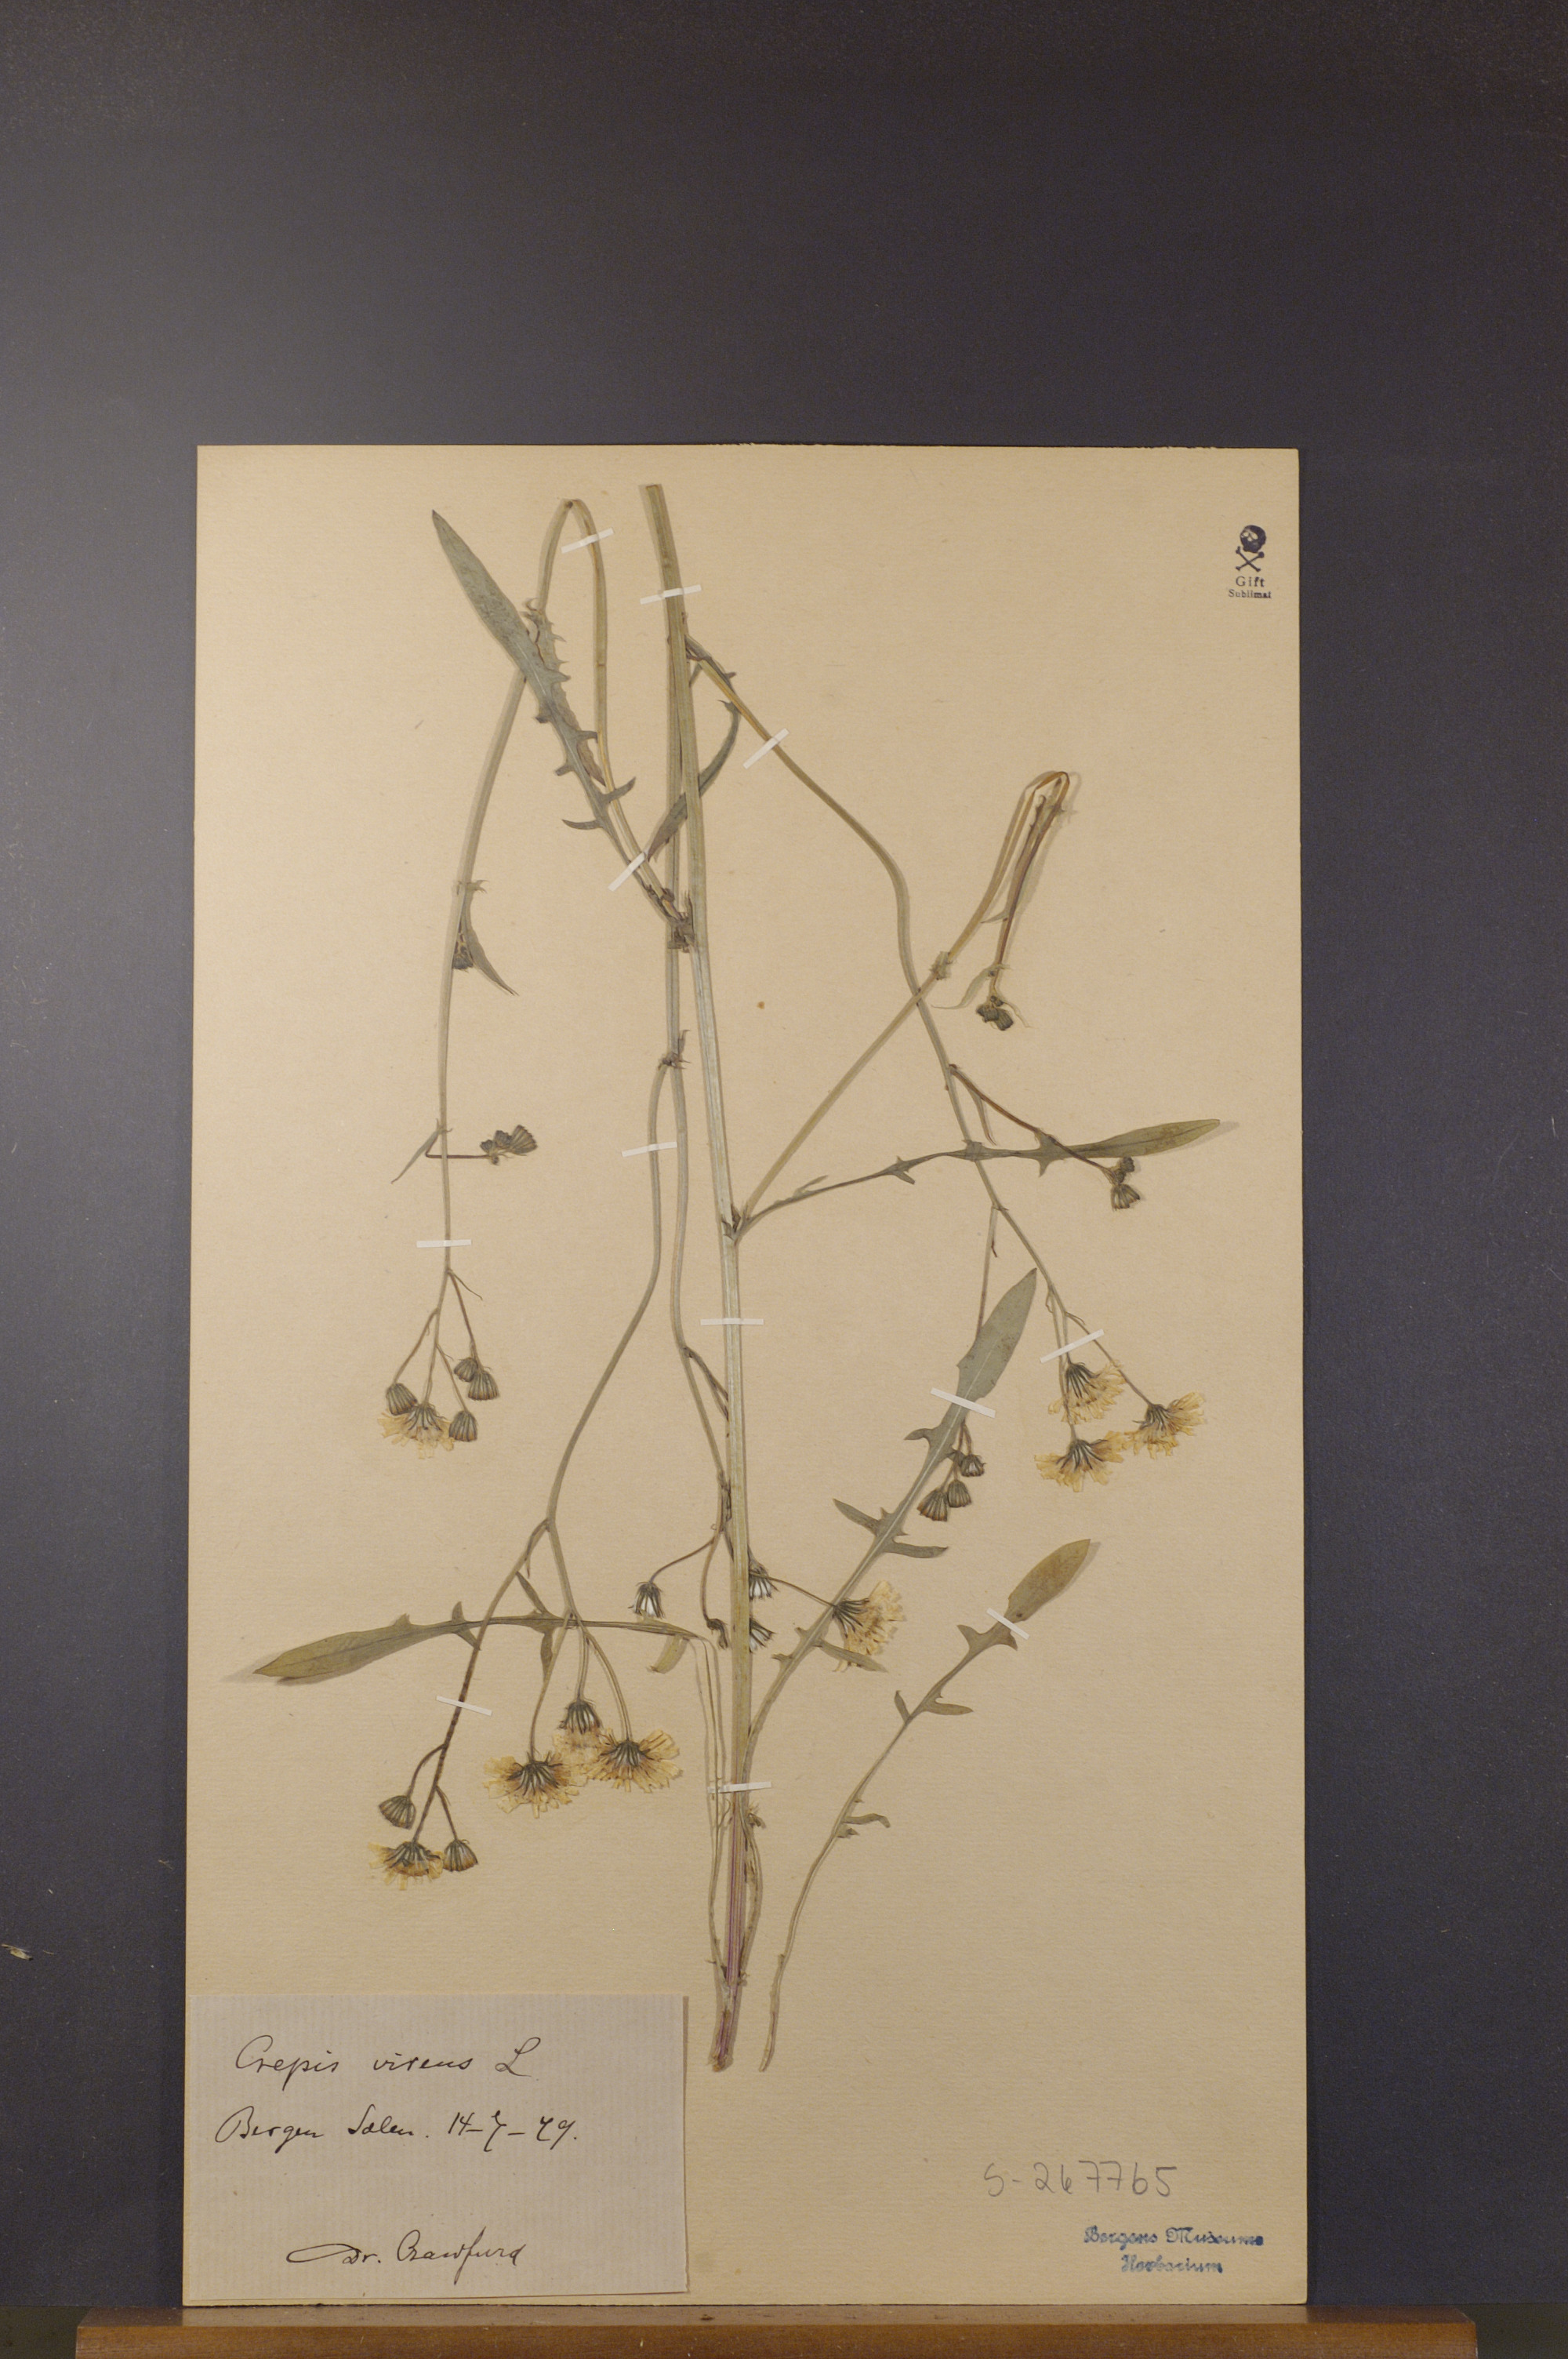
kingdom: Plantae
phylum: Tracheophyta
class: Magnoliopsida
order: Asterales
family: Asteraceae
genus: Crepis
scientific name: Crepis capillaris
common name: Smooth hawksbeard
